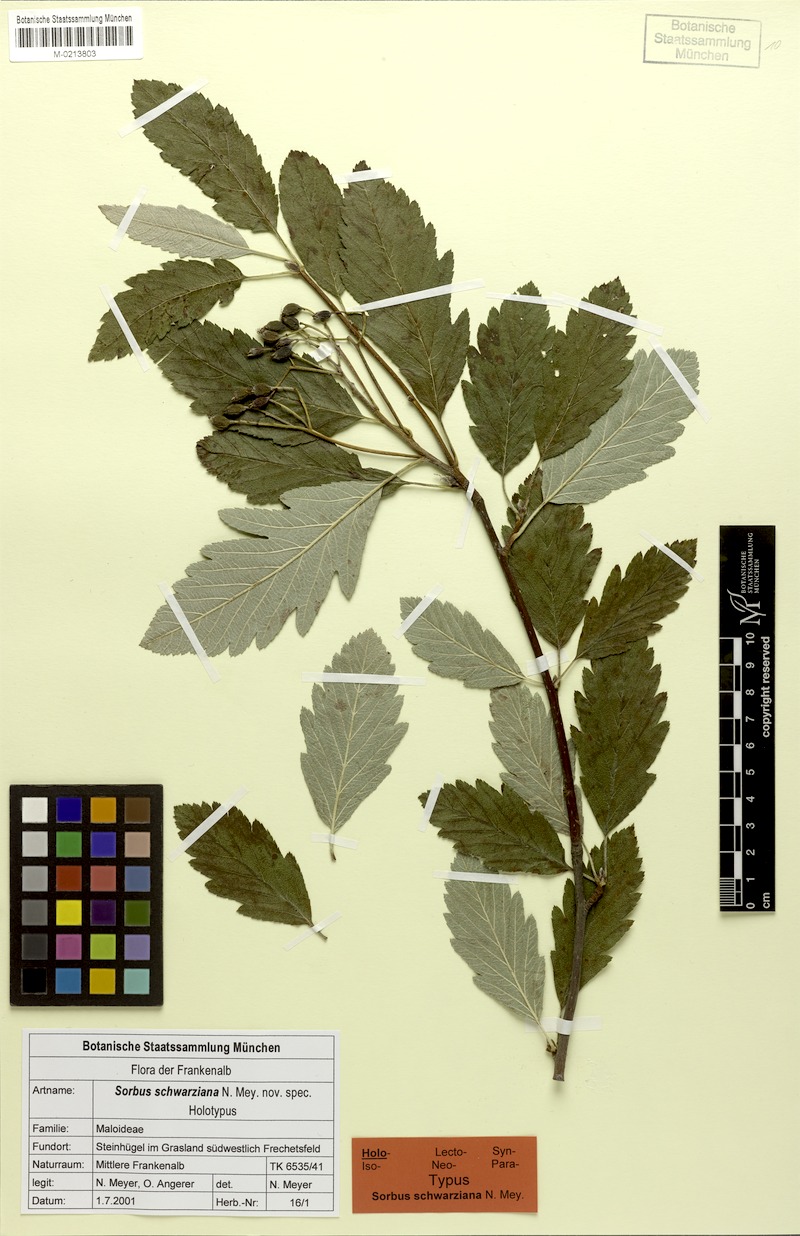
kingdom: Plantae
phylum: Tracheophyta
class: Magnoliopsida
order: Rosales
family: Rosaceae
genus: Hedlundia
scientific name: Hedlundia schwarziana
